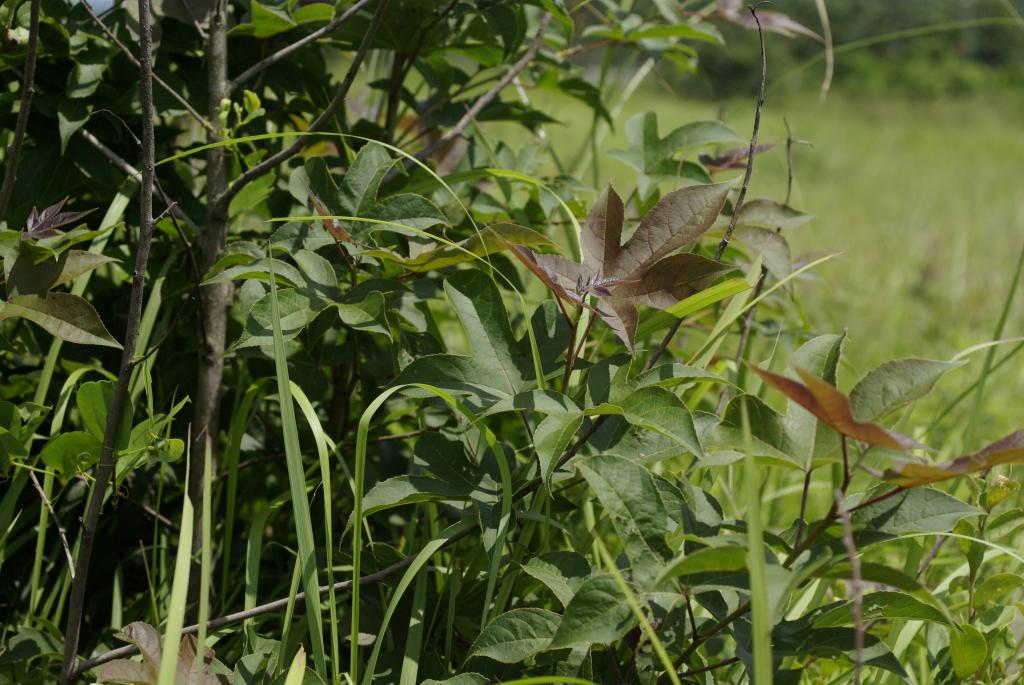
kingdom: Plantae
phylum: Tracheophyta
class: Magnoliopsida
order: Saxifragales
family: Altingiaceae
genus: Liquidambar
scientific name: Liquidambar formosana
